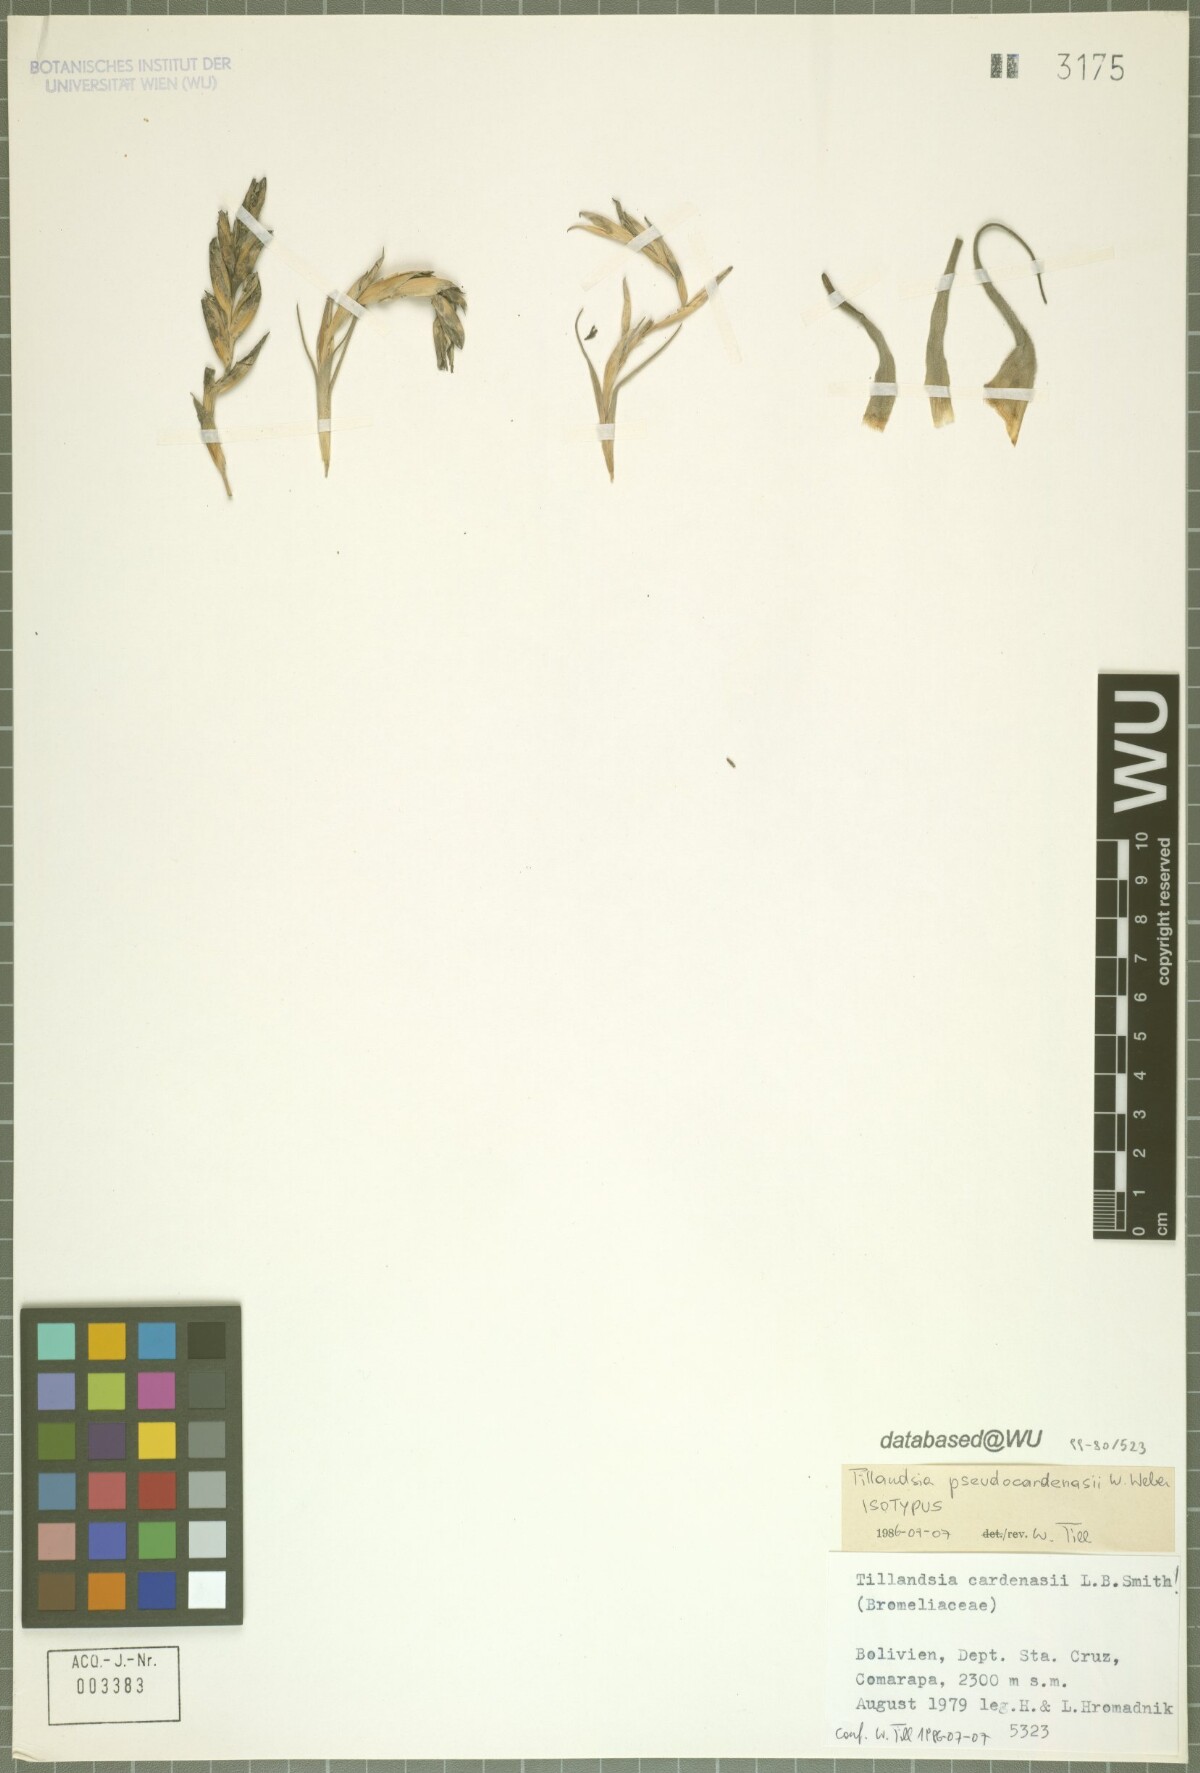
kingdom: Plantae
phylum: Tracheophyta
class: Liliopsida
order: Poales
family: Bromeliaceae
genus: Tillandsia
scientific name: Tillandsia pseudocardenasii
